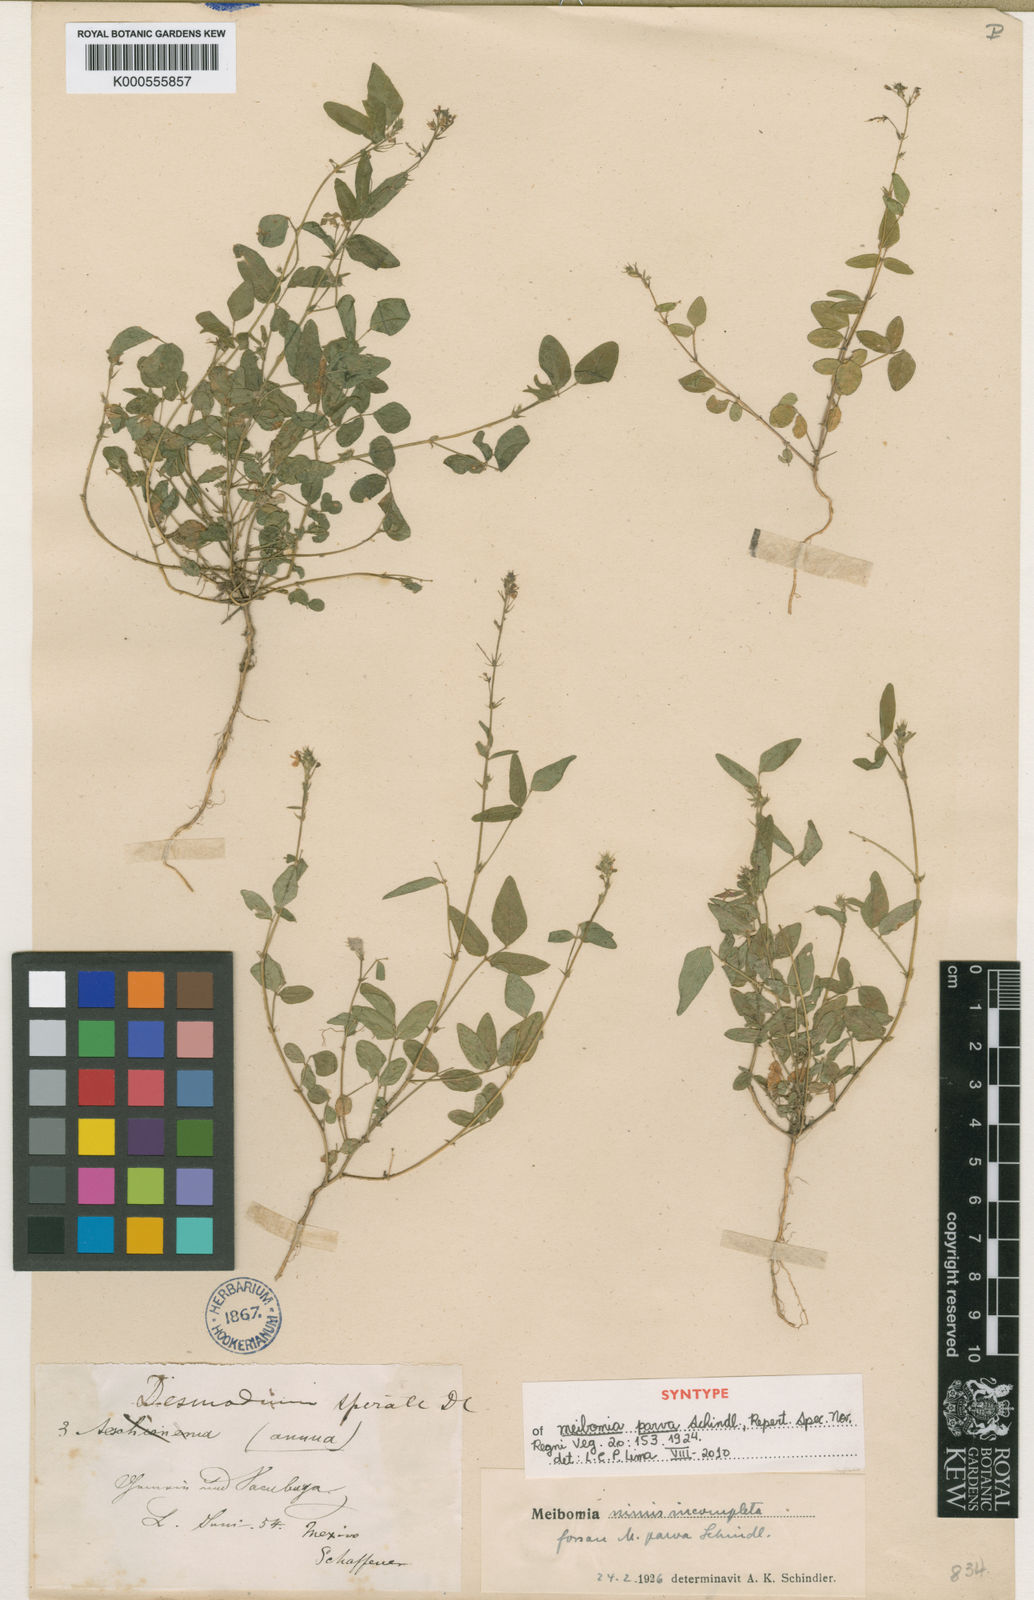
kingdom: Plantae
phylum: Tracheophyta
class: Magnoliopsida
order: Fabales
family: Fabaceae
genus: Desmodium
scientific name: Desmodium procumbens
